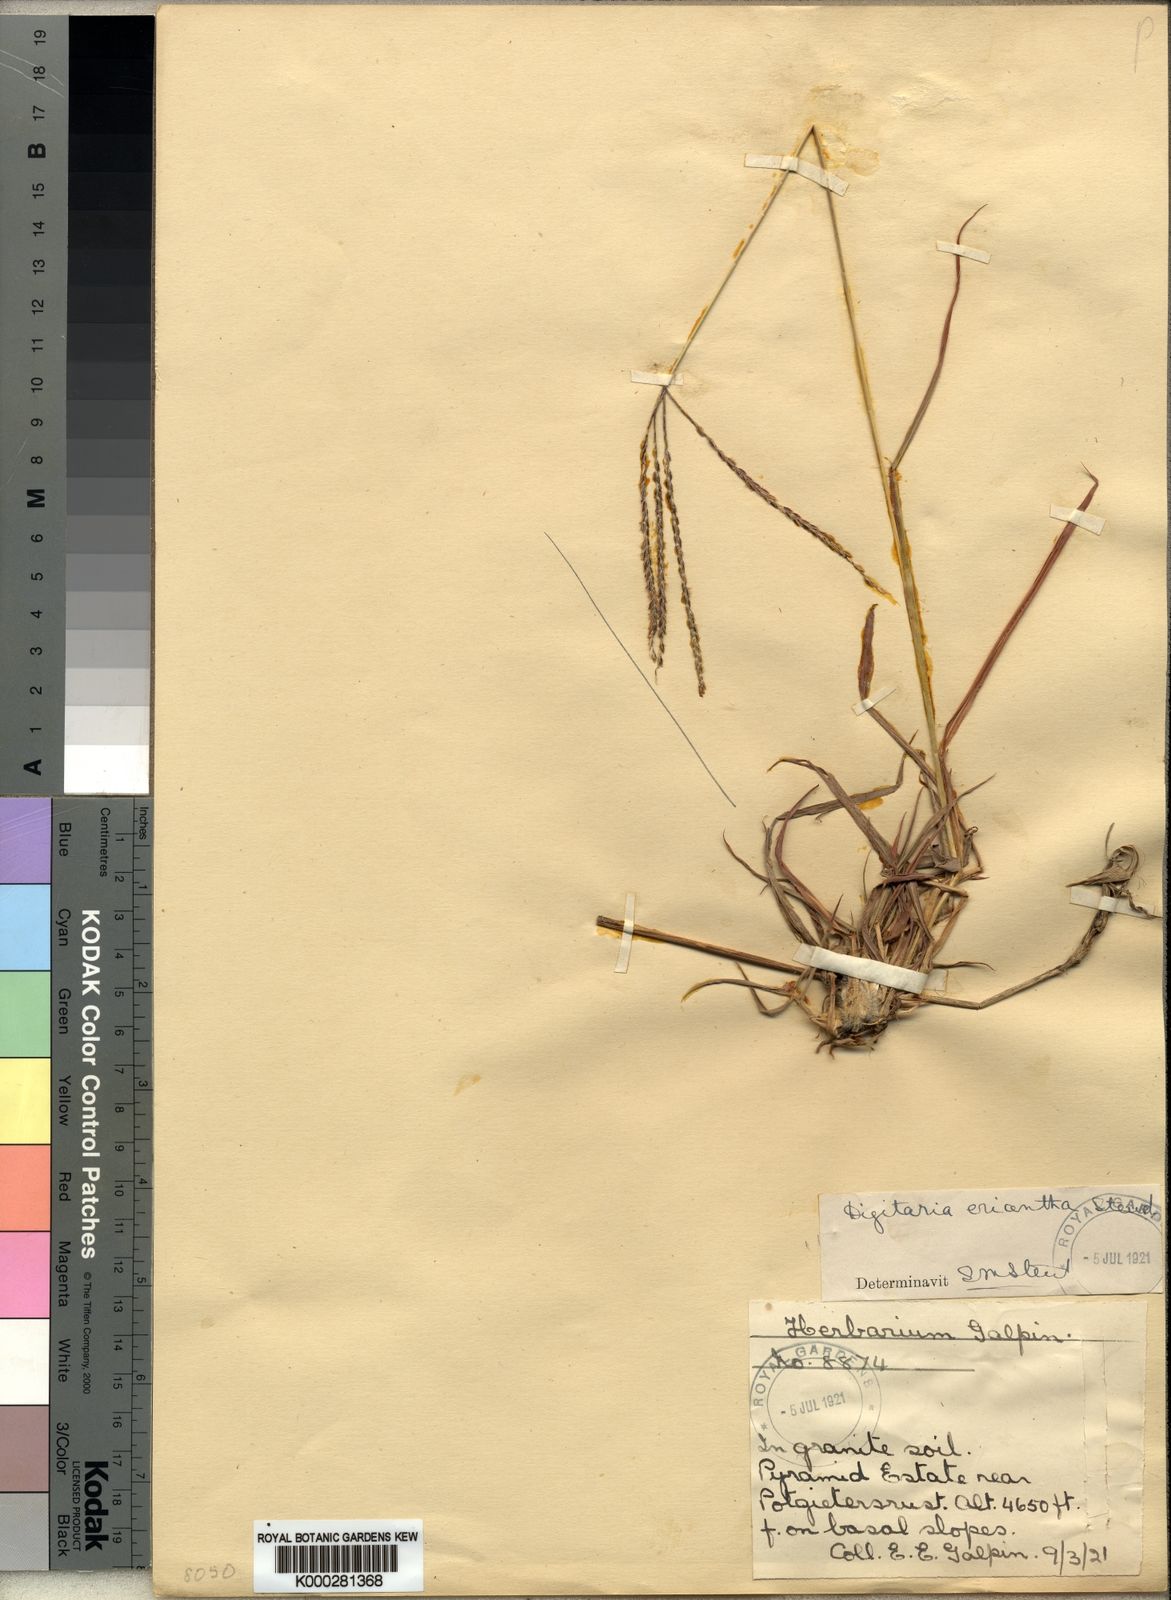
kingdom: Plantae
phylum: Tracheophyta
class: Liliopsida
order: Poales
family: Poaceae
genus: Digitaria
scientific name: Digitaria milanjiana
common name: Madagascar crabgrass
